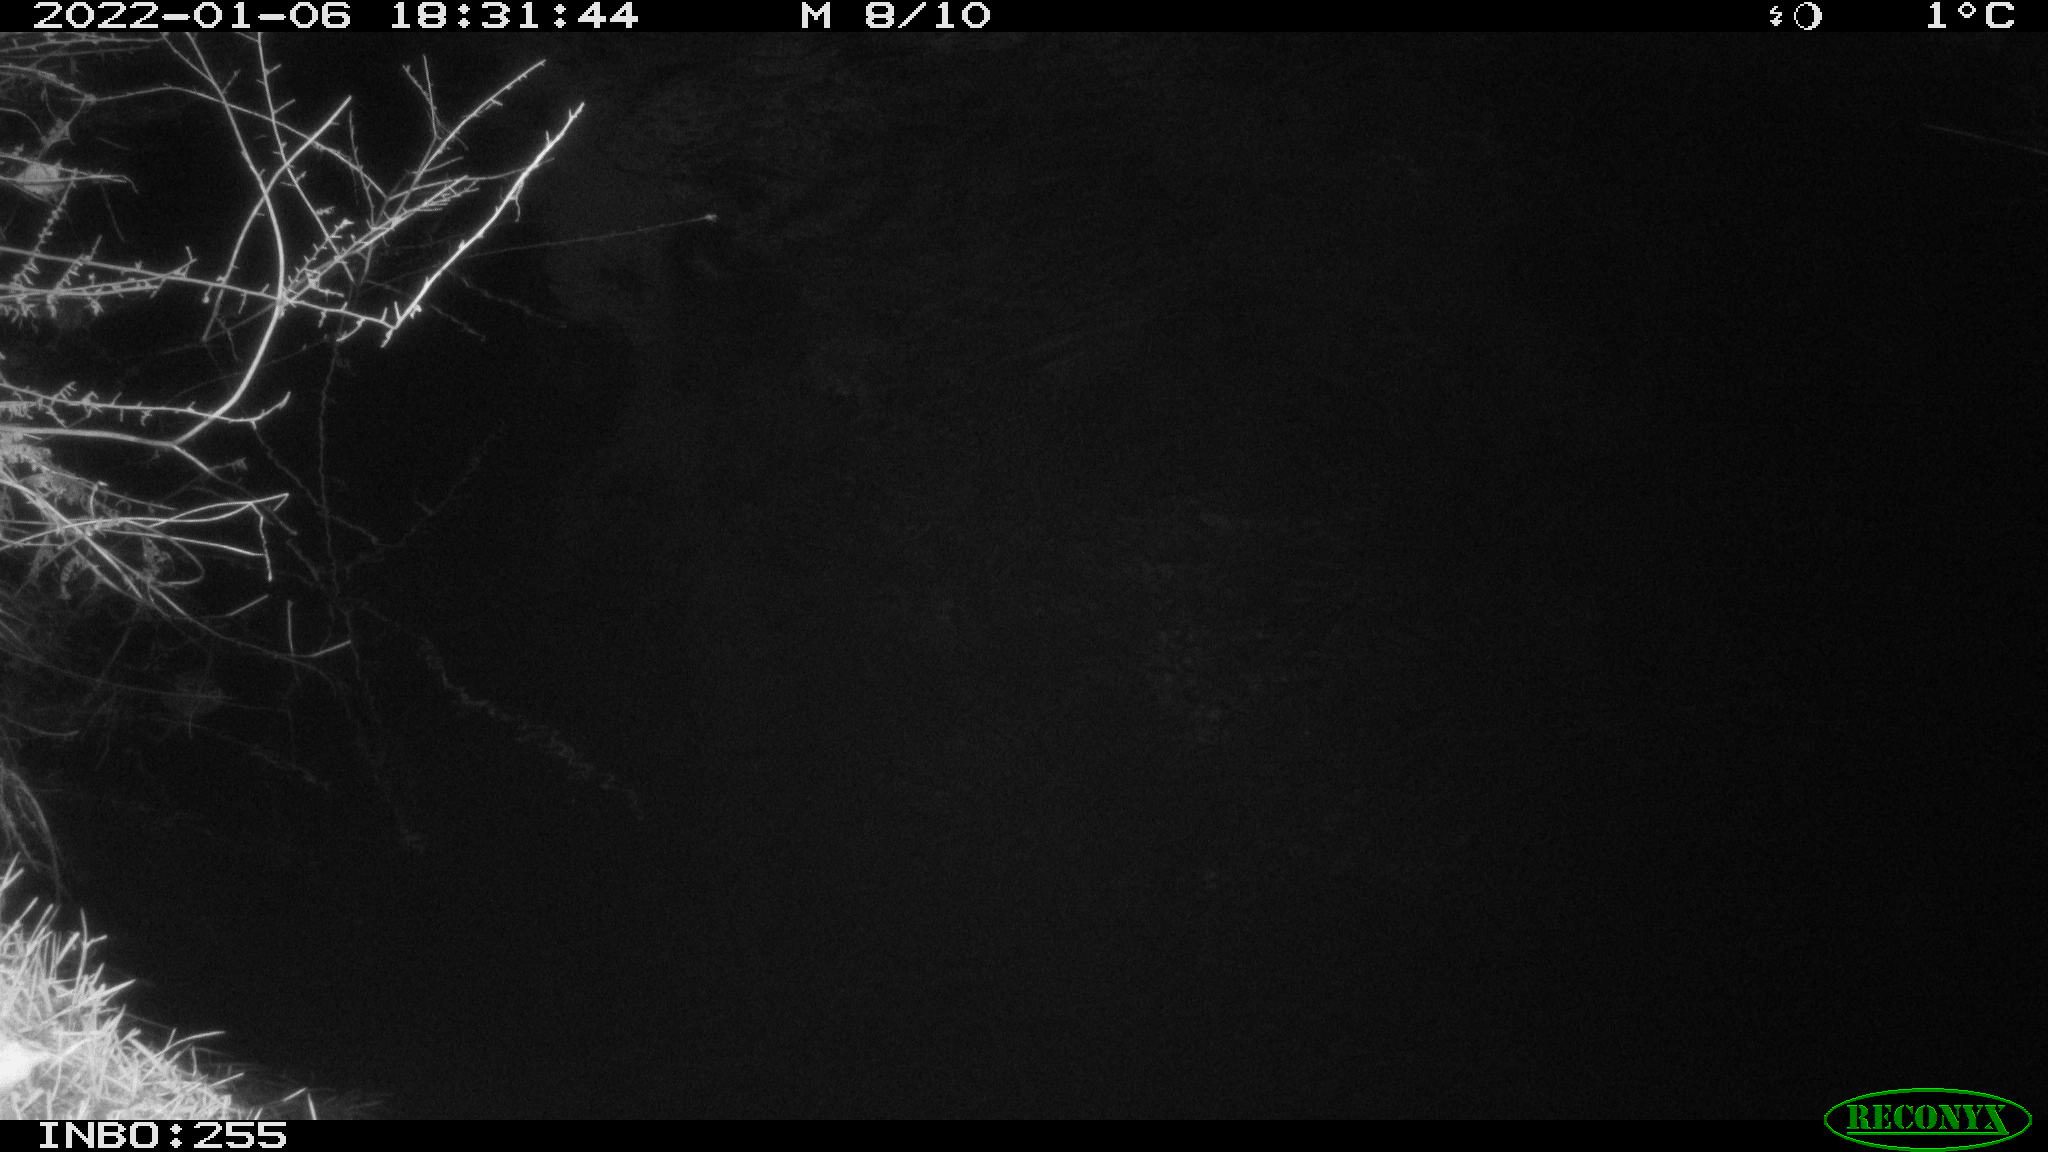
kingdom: Animalia
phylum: Chordata
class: Mammalia
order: Rodentia
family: Muridae
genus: Rattus
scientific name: Rattus norvegicus
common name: Brown rat
